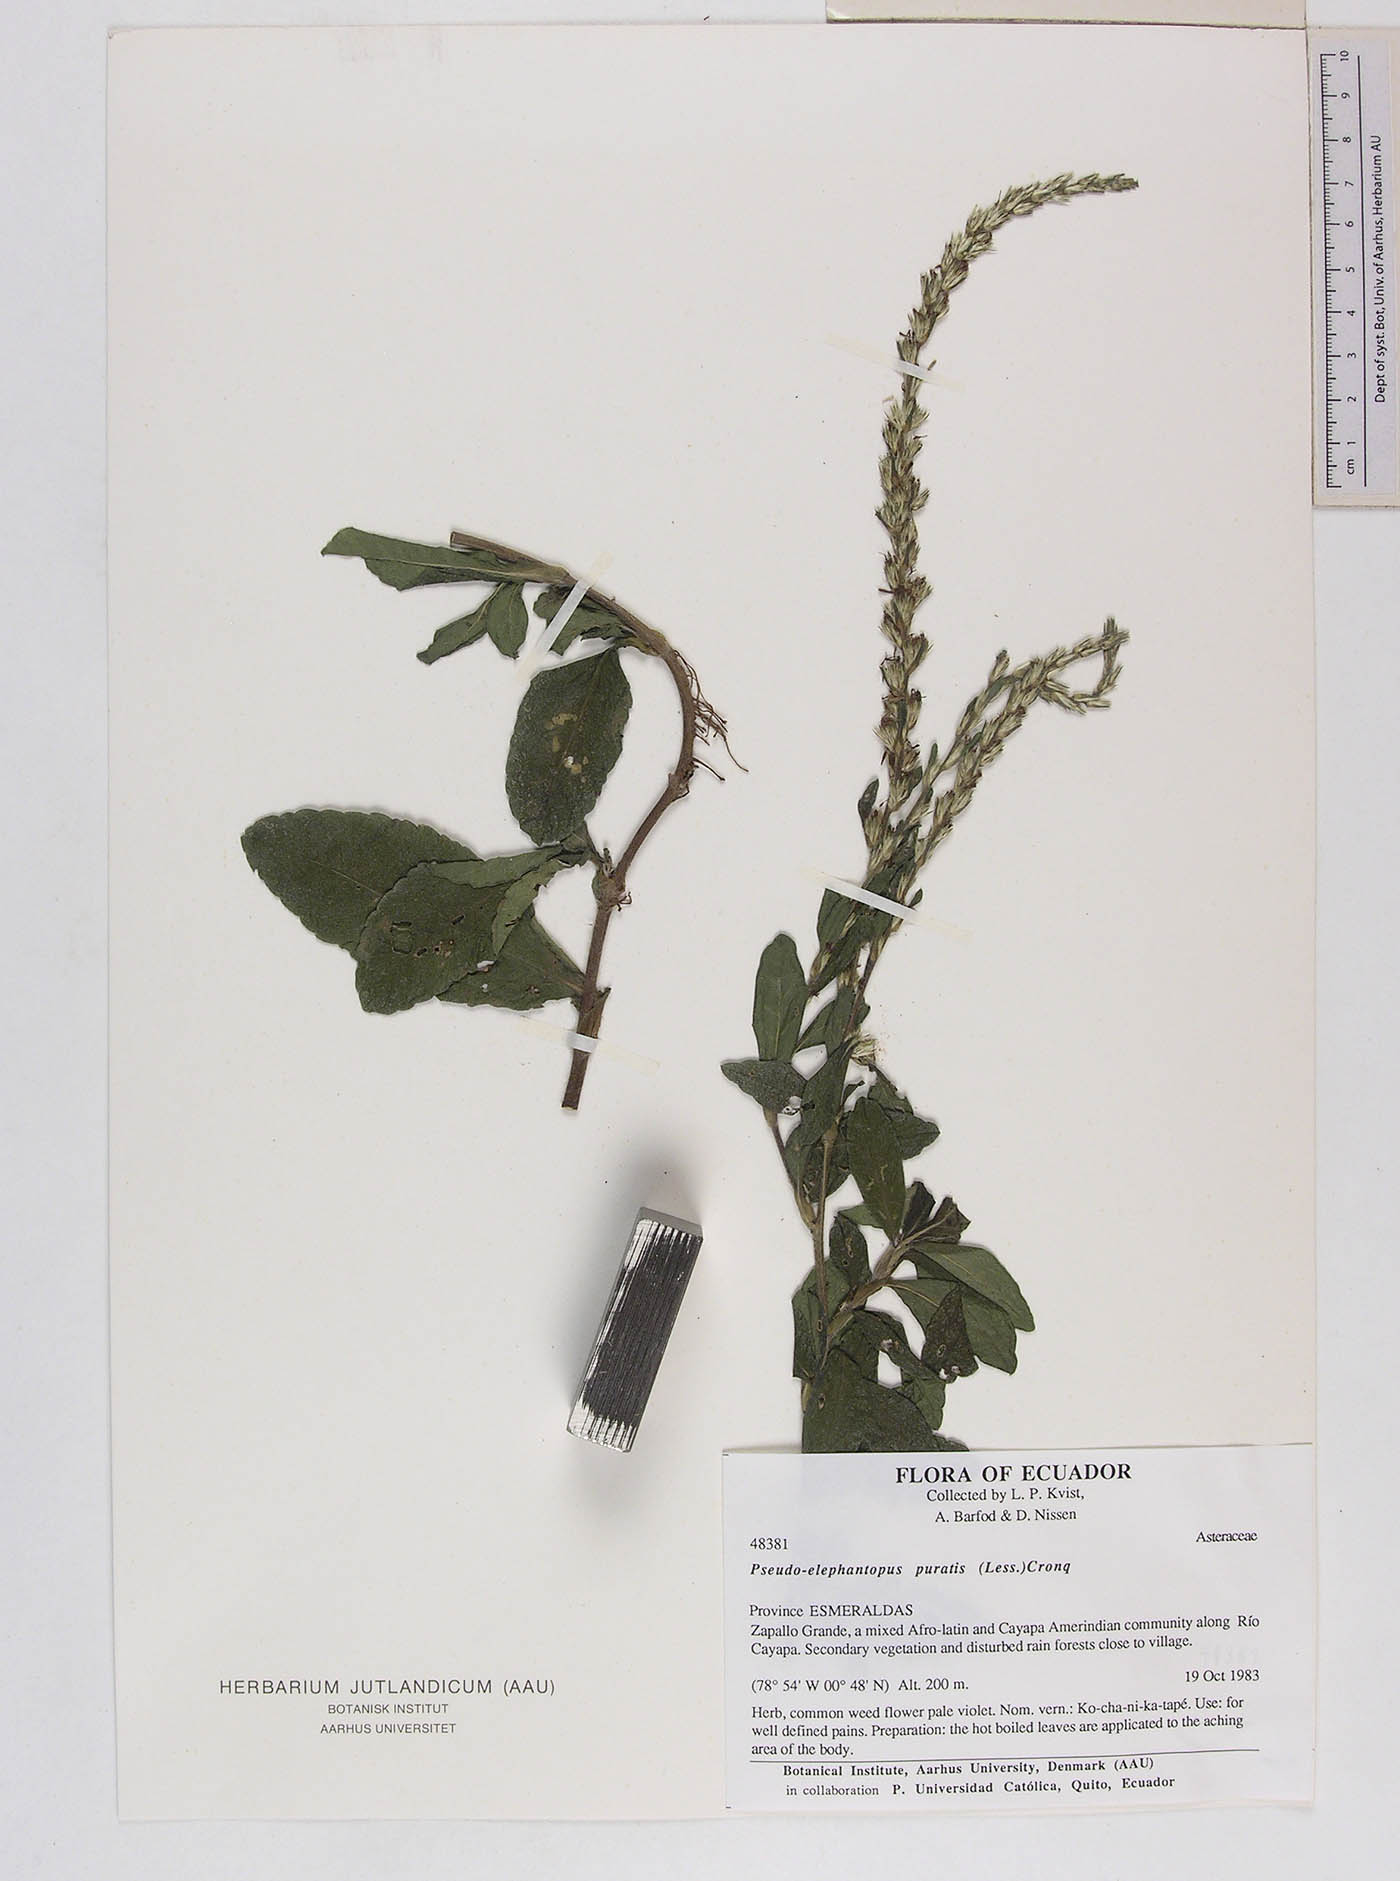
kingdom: Plantae
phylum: Tracheophyta
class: Magnoliopsida
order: Asterales
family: Asteraceae
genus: Pseudelephantopus
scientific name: Pseudelephantopus spiralis
